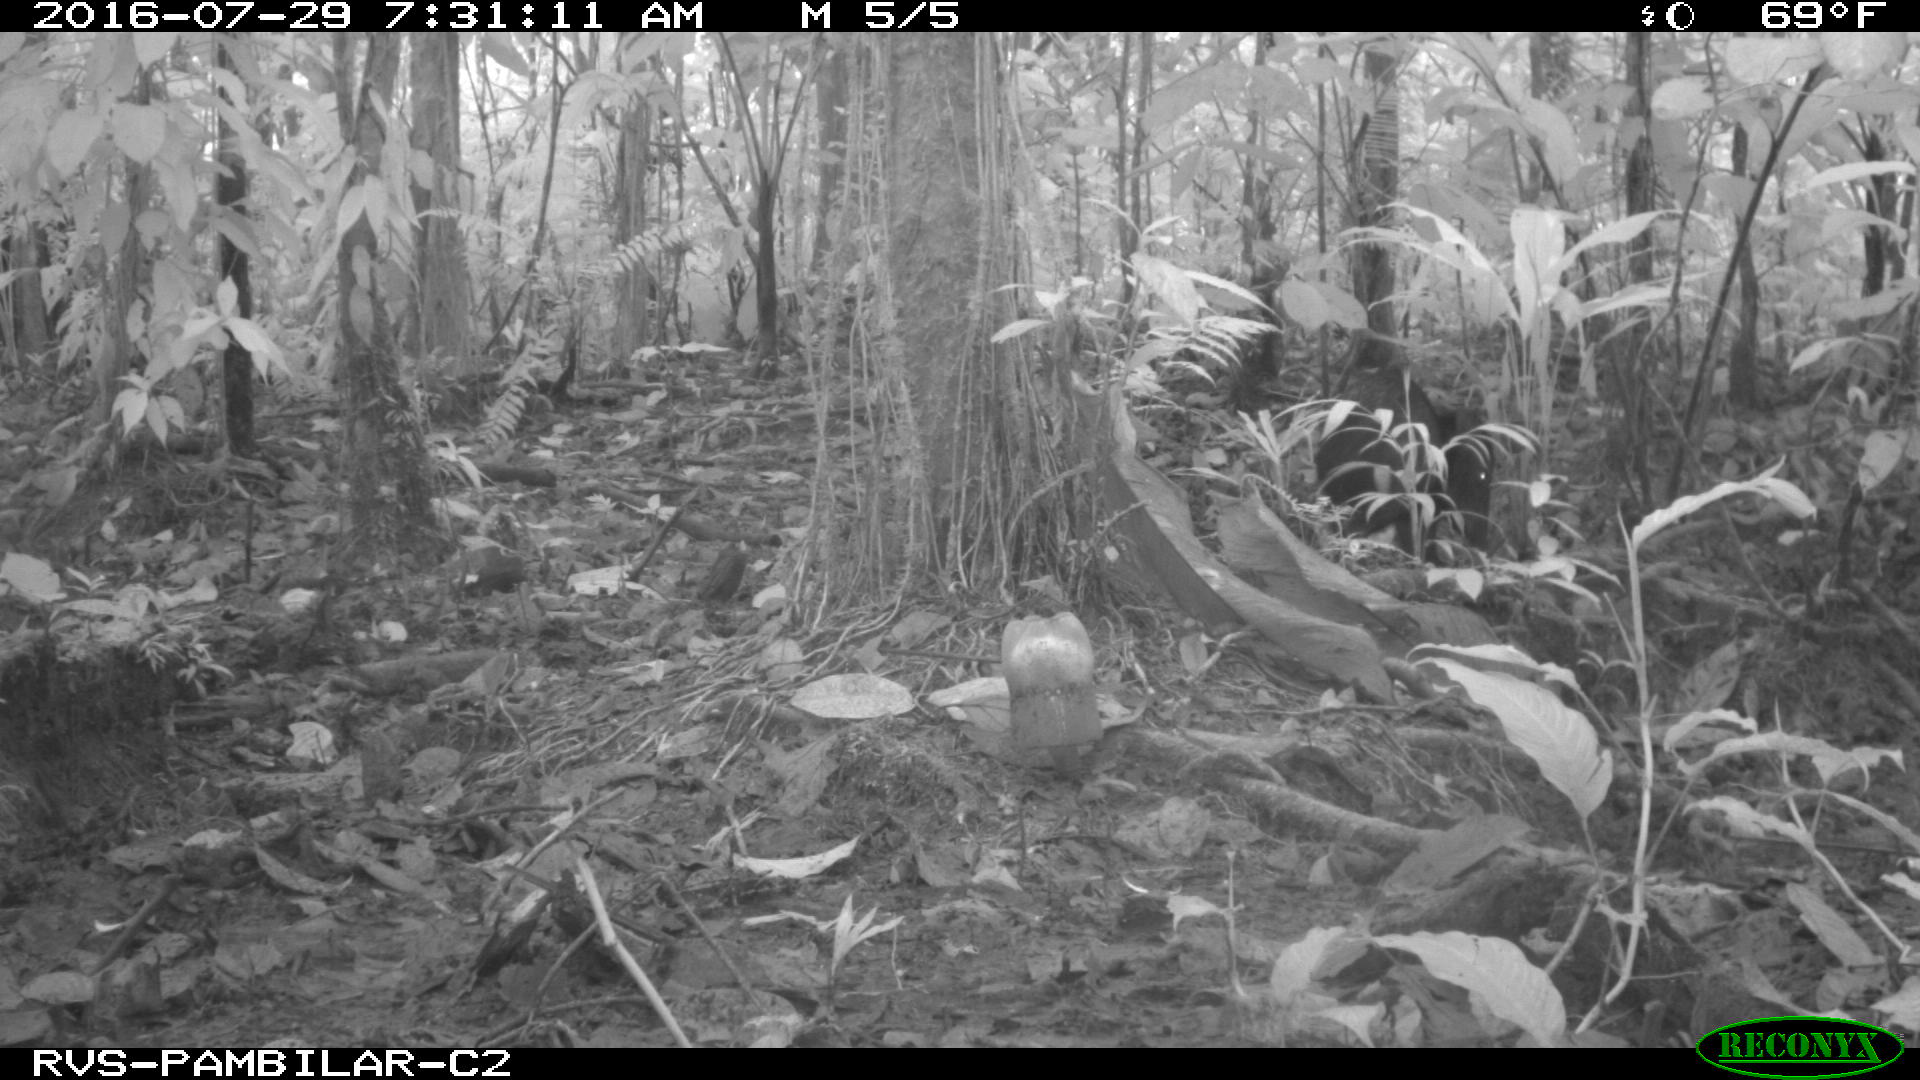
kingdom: Animalia
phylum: Chordata
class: Mammalia
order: Artiodactyla
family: Tayassuidae
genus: Pecari
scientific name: Pecari tajacu
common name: Collared peccary
